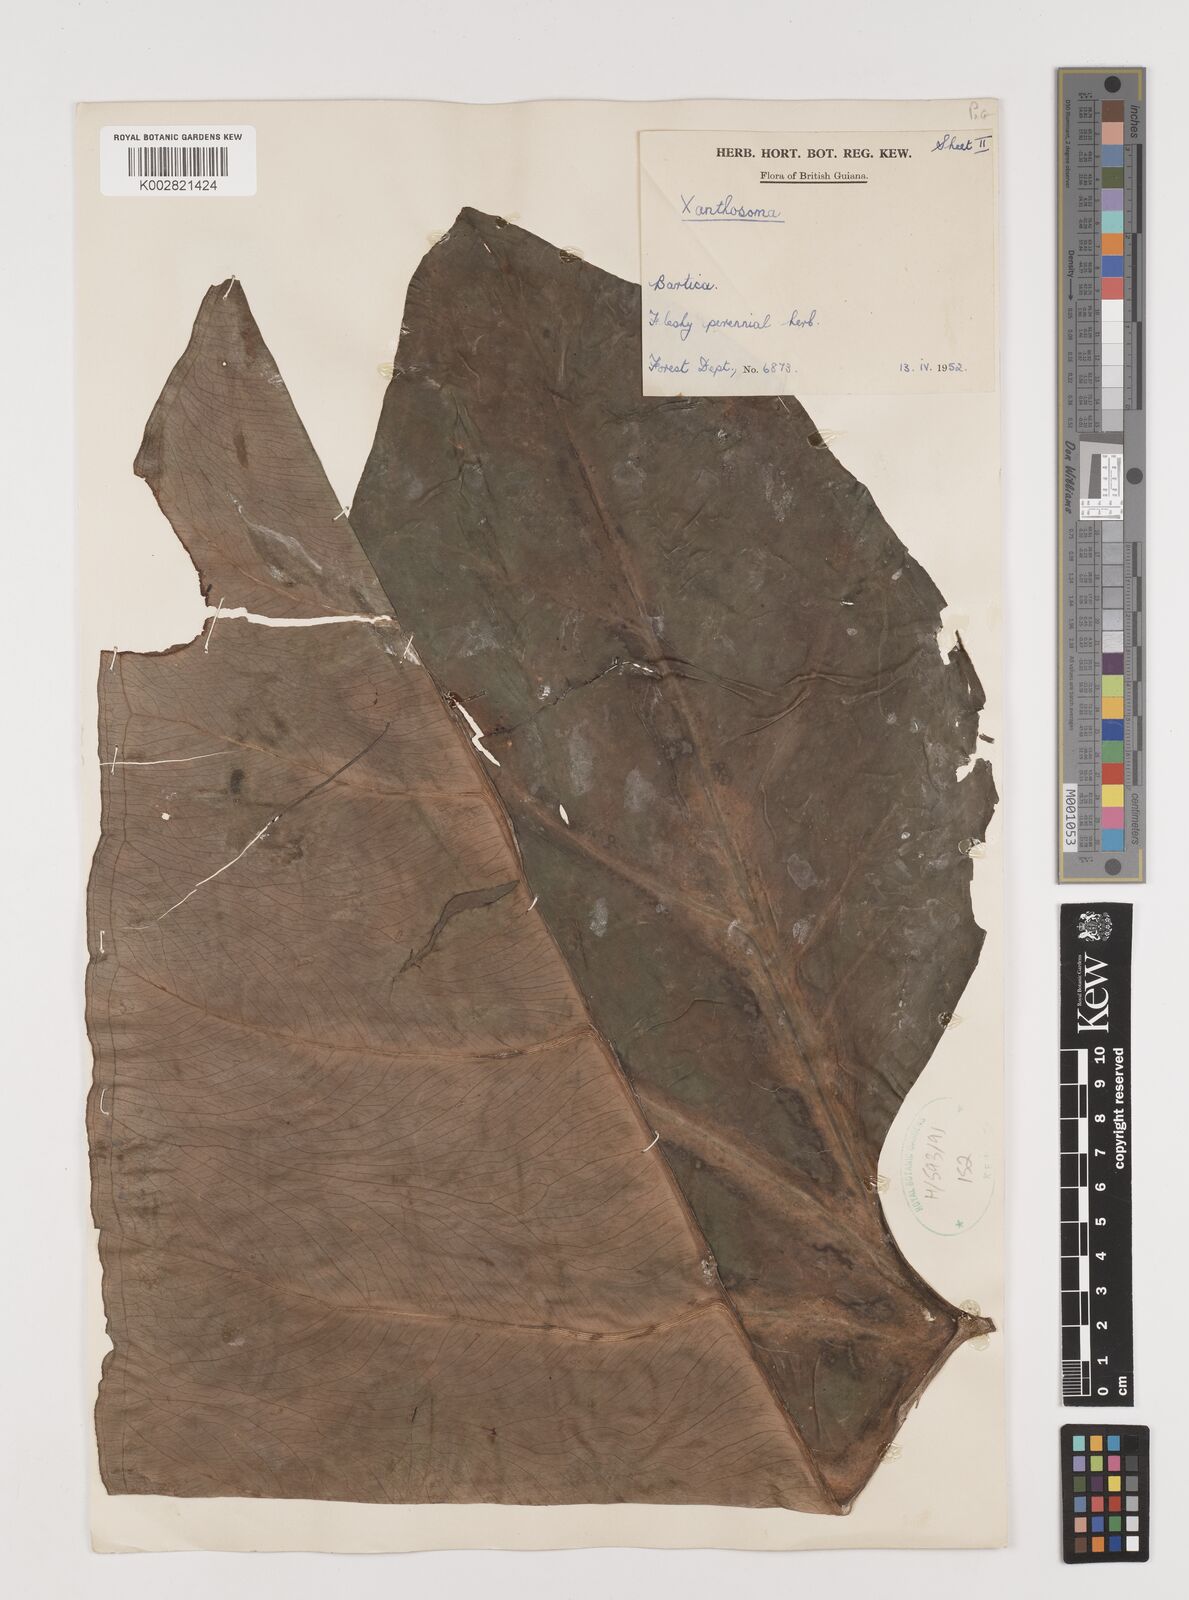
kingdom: Plantae
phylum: Tracheophyta
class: Liliopsida
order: Alismatales
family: Araceae
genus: Xanthosoma
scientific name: Xanthosoma
